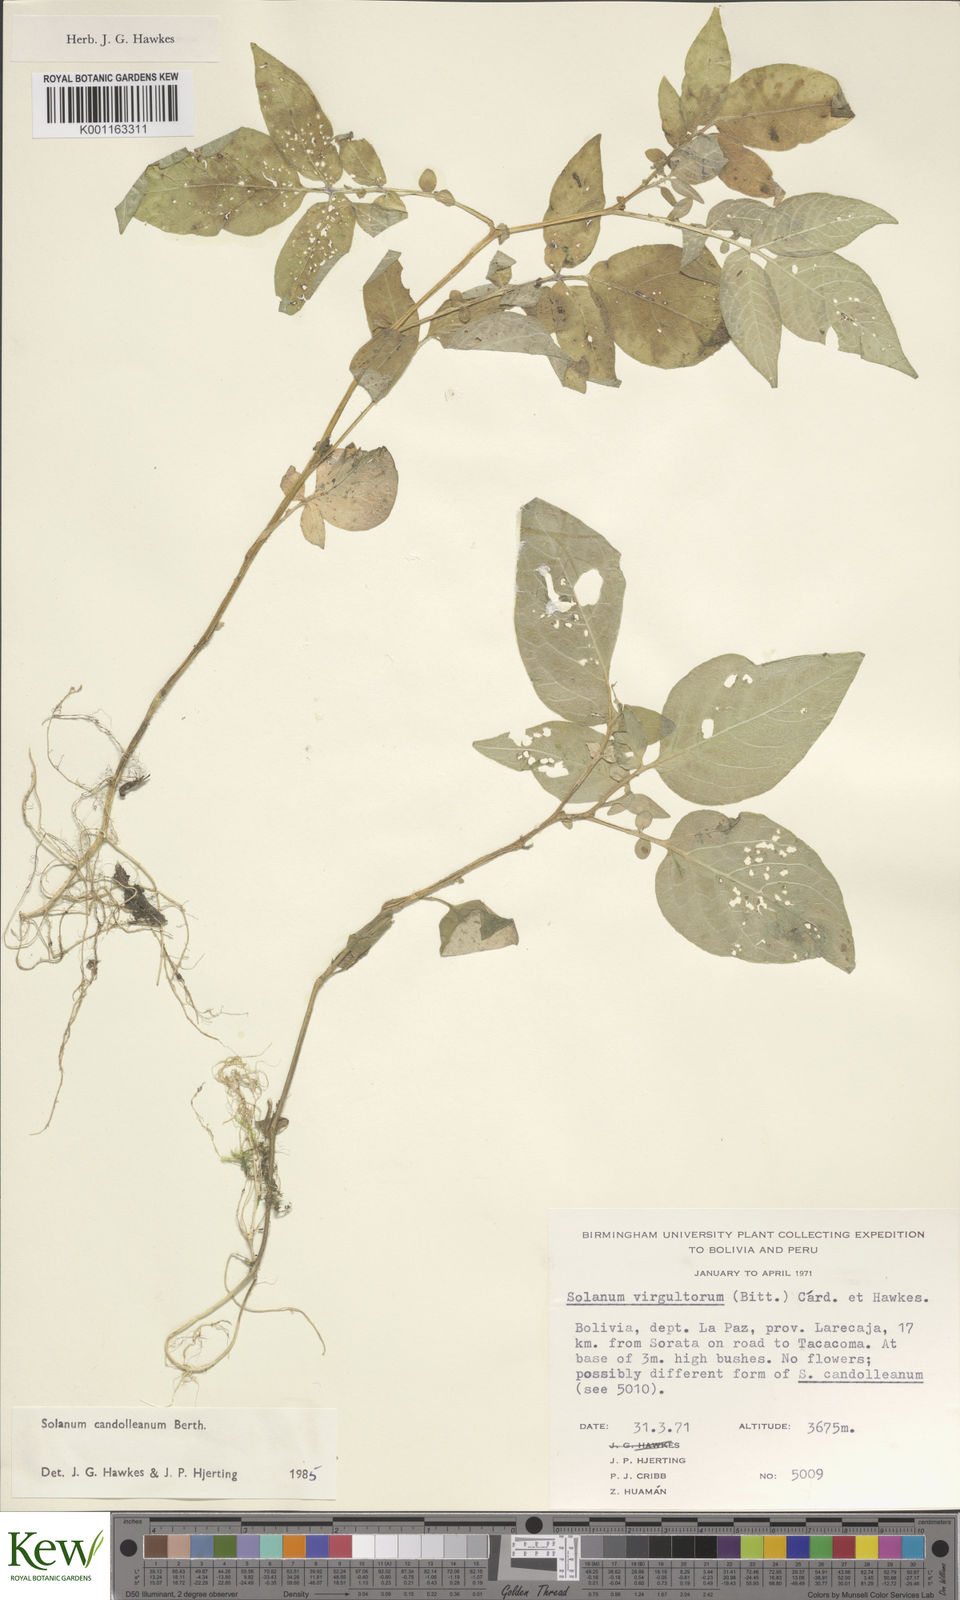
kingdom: Plantae
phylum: Tracheophyta
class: Magnoliopsida
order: Solanales
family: Solanaceae
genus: Solanum
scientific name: Solanum candolleanum
